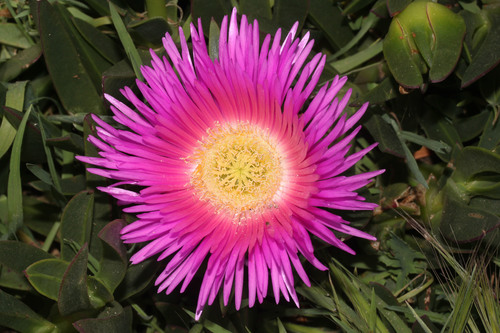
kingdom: Plantae
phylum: Tracheophyta
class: Magnoliopsida
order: Caryophyllales
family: Aizoaceae
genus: Carpobrotus
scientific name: Carpobrotus edulis
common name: Hottentot-fig
